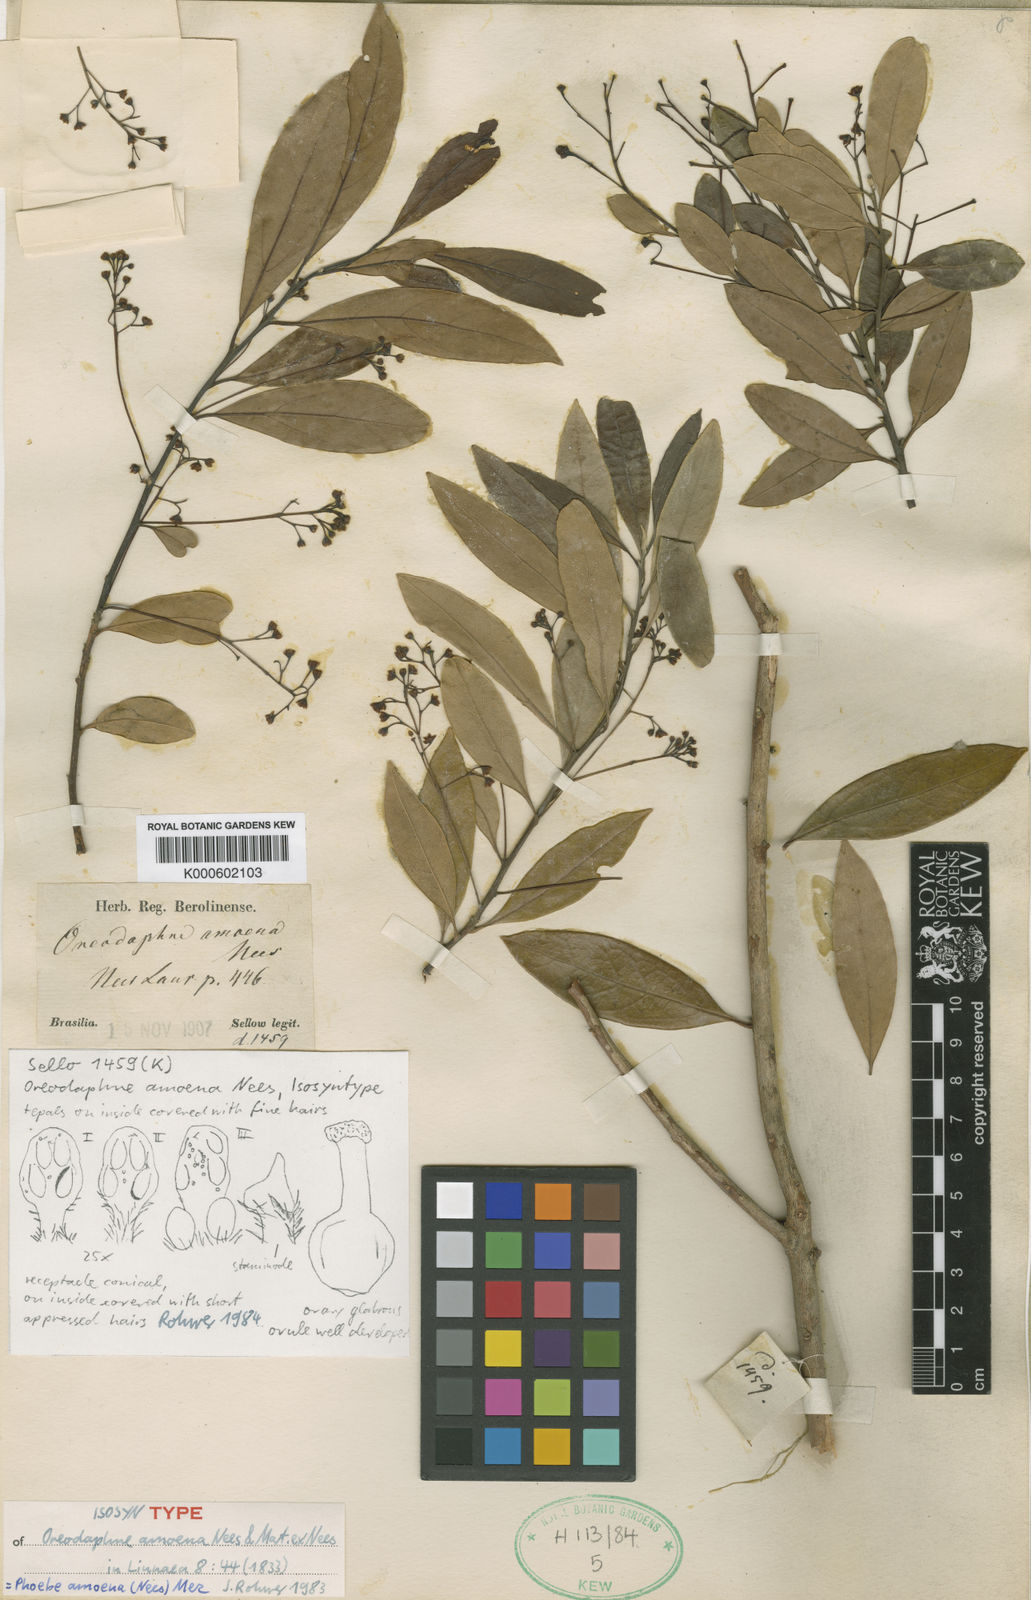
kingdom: Plantae
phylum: Tracheophyta
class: Magnoliopsida
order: Laurales
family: Lauraceae
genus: Aiouea
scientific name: Aiouea amoena
